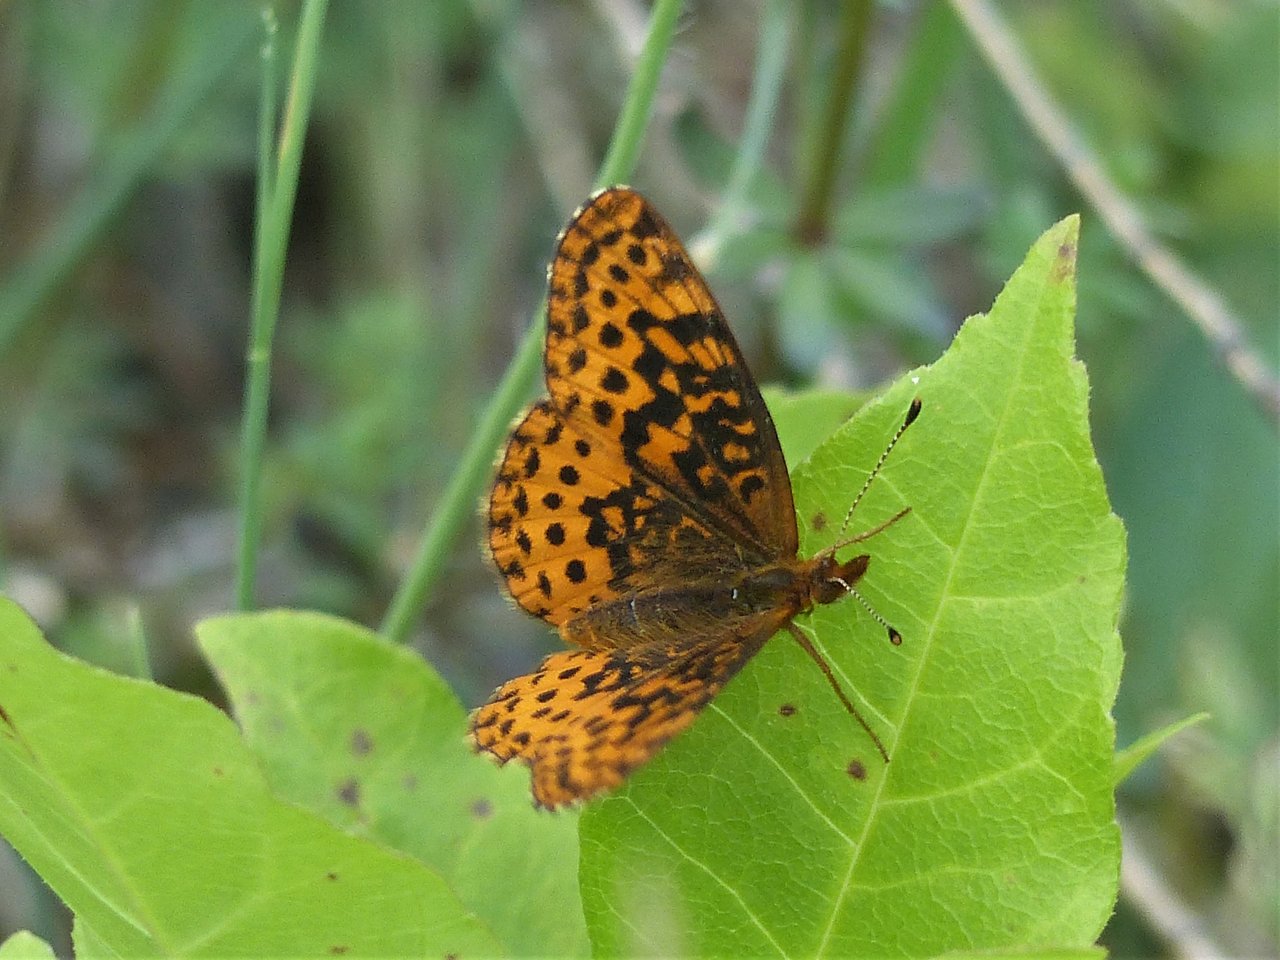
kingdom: Animalia
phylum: Arthropoda
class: Insecta
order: Lepidoptera
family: Nymphalidae
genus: Clossiana
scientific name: Clossiana toddi
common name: Meadow Fritillary
